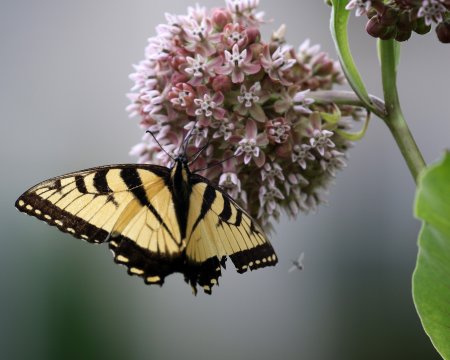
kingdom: Animalia
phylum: Arthropoda
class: Insecta
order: Lepidoptera
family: Papilionidae
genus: Pterourus
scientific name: Pterourus glaucus
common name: Eastern Tiger Swallowtail
